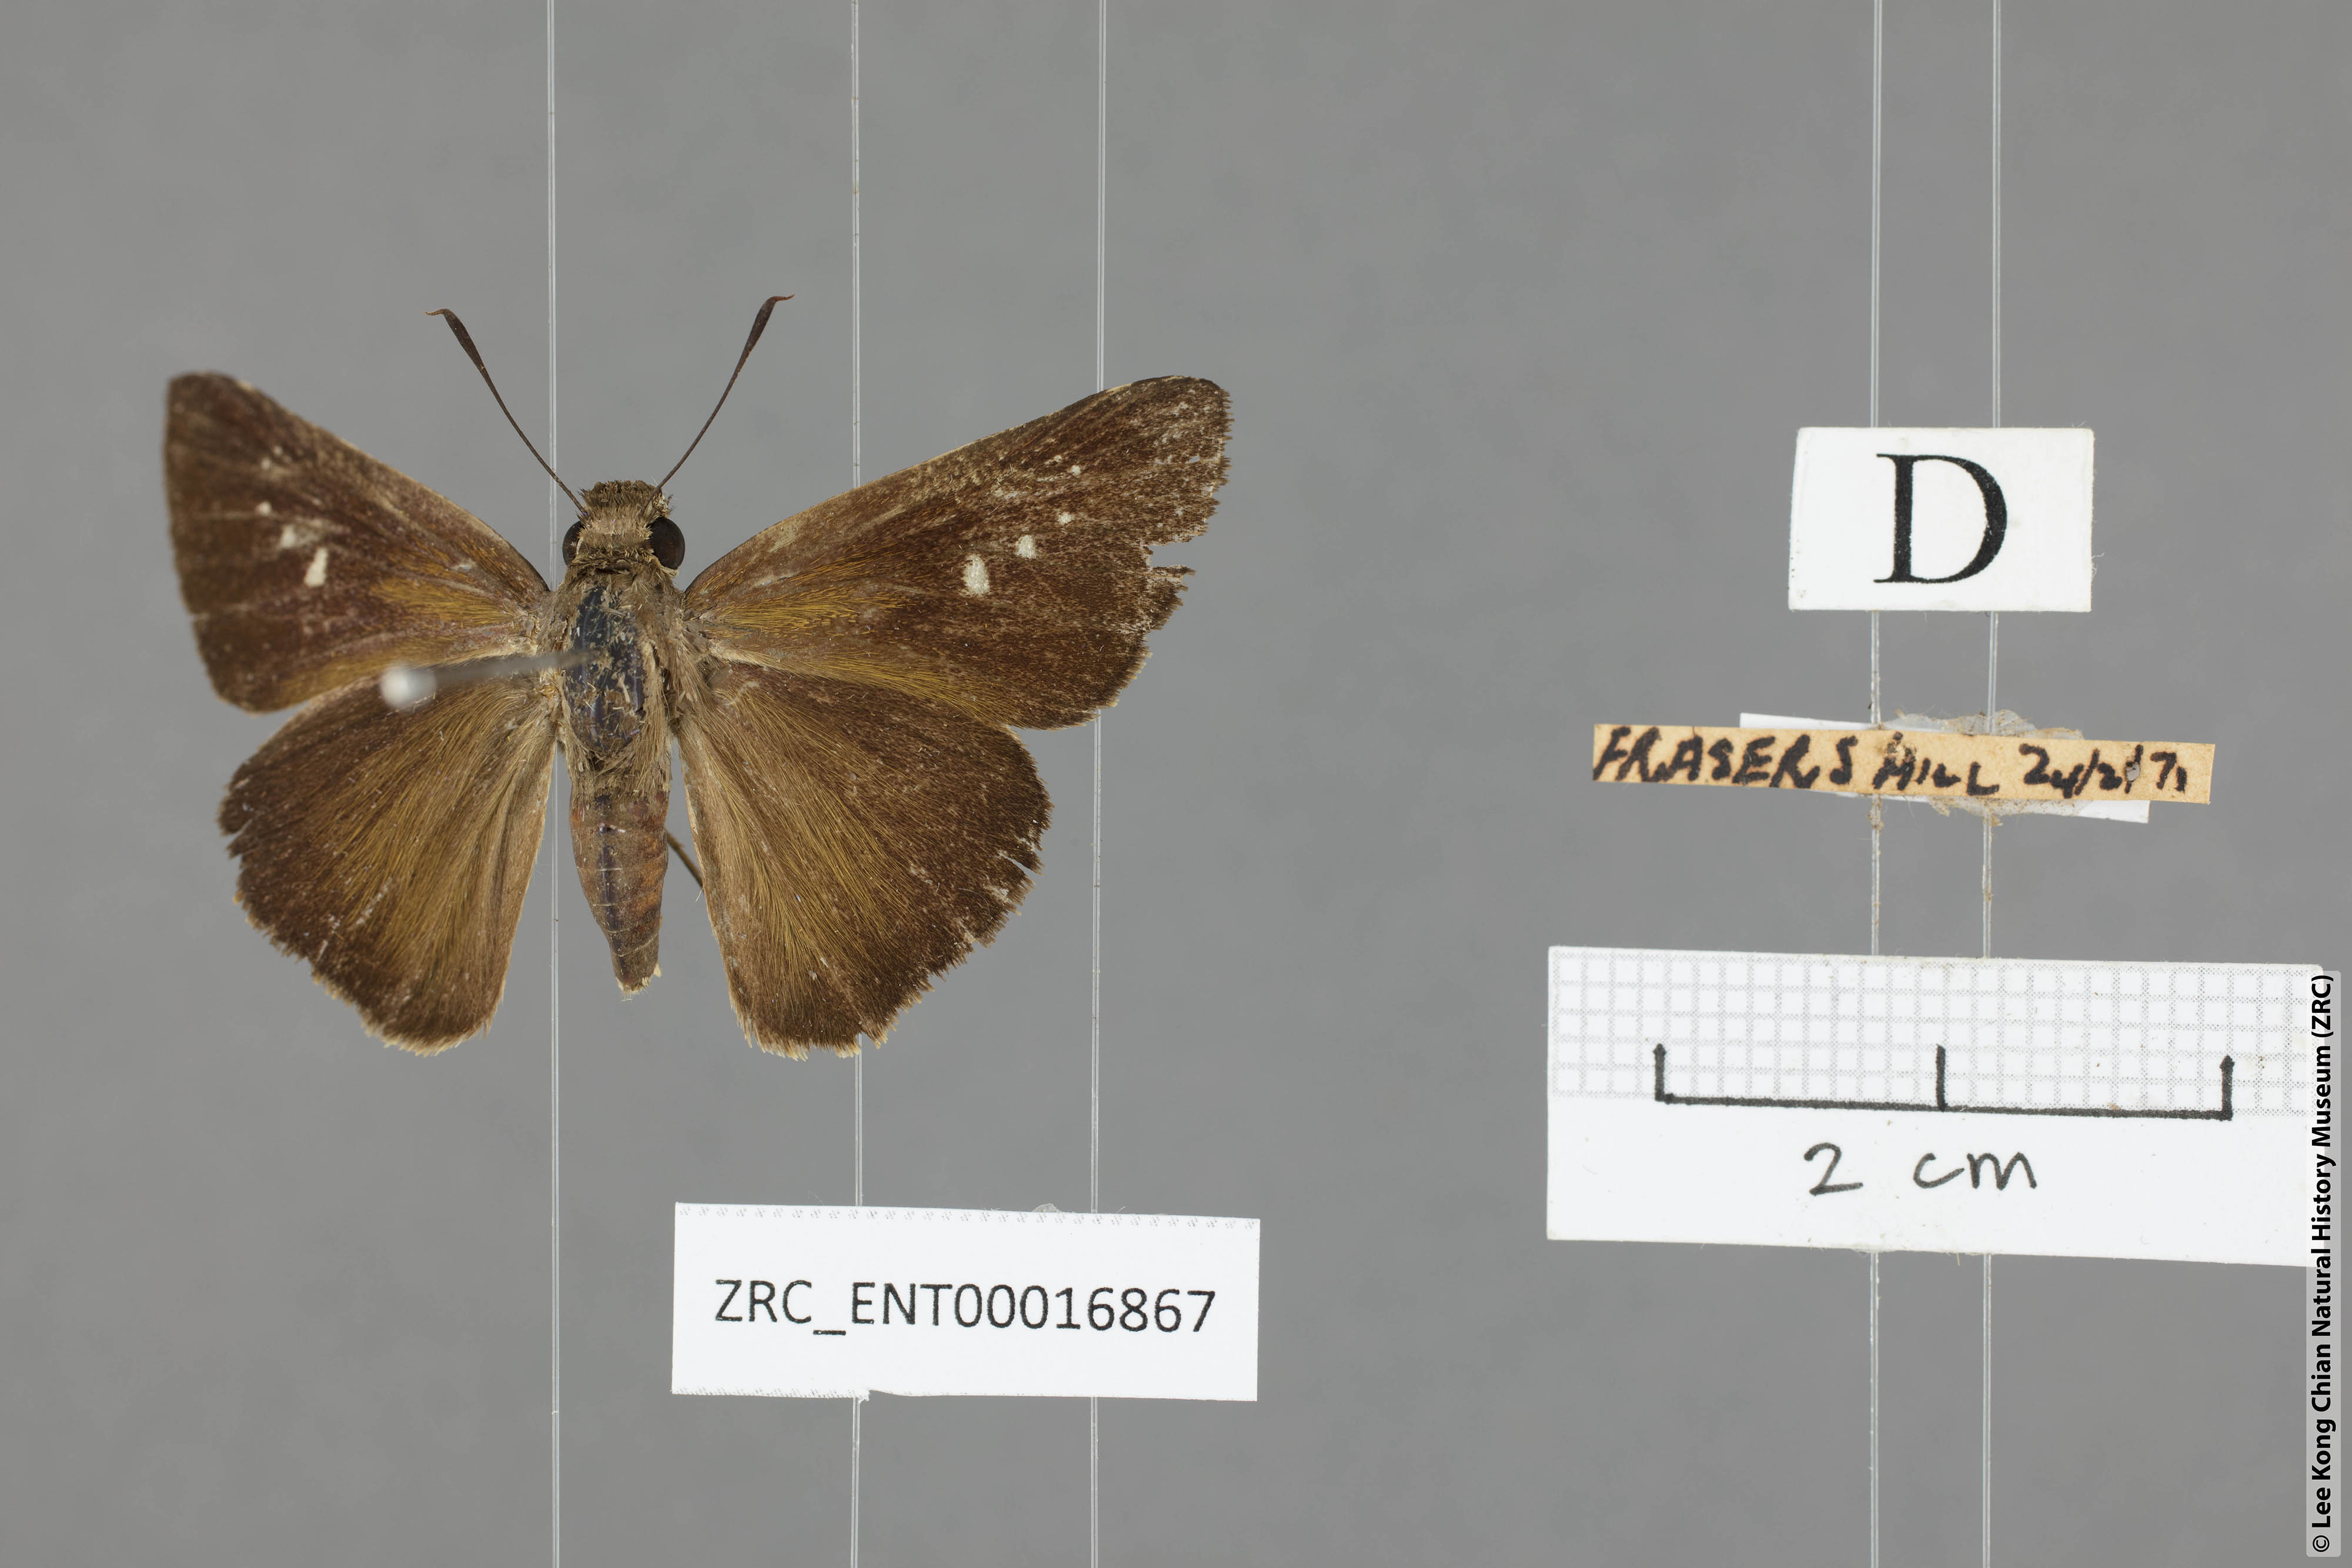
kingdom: Animalia
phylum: Arthropoda
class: Insecta
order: Lepidoptera
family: Hesperiidae
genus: Caltoris
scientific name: Caltoris tulsi
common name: Purple swift
